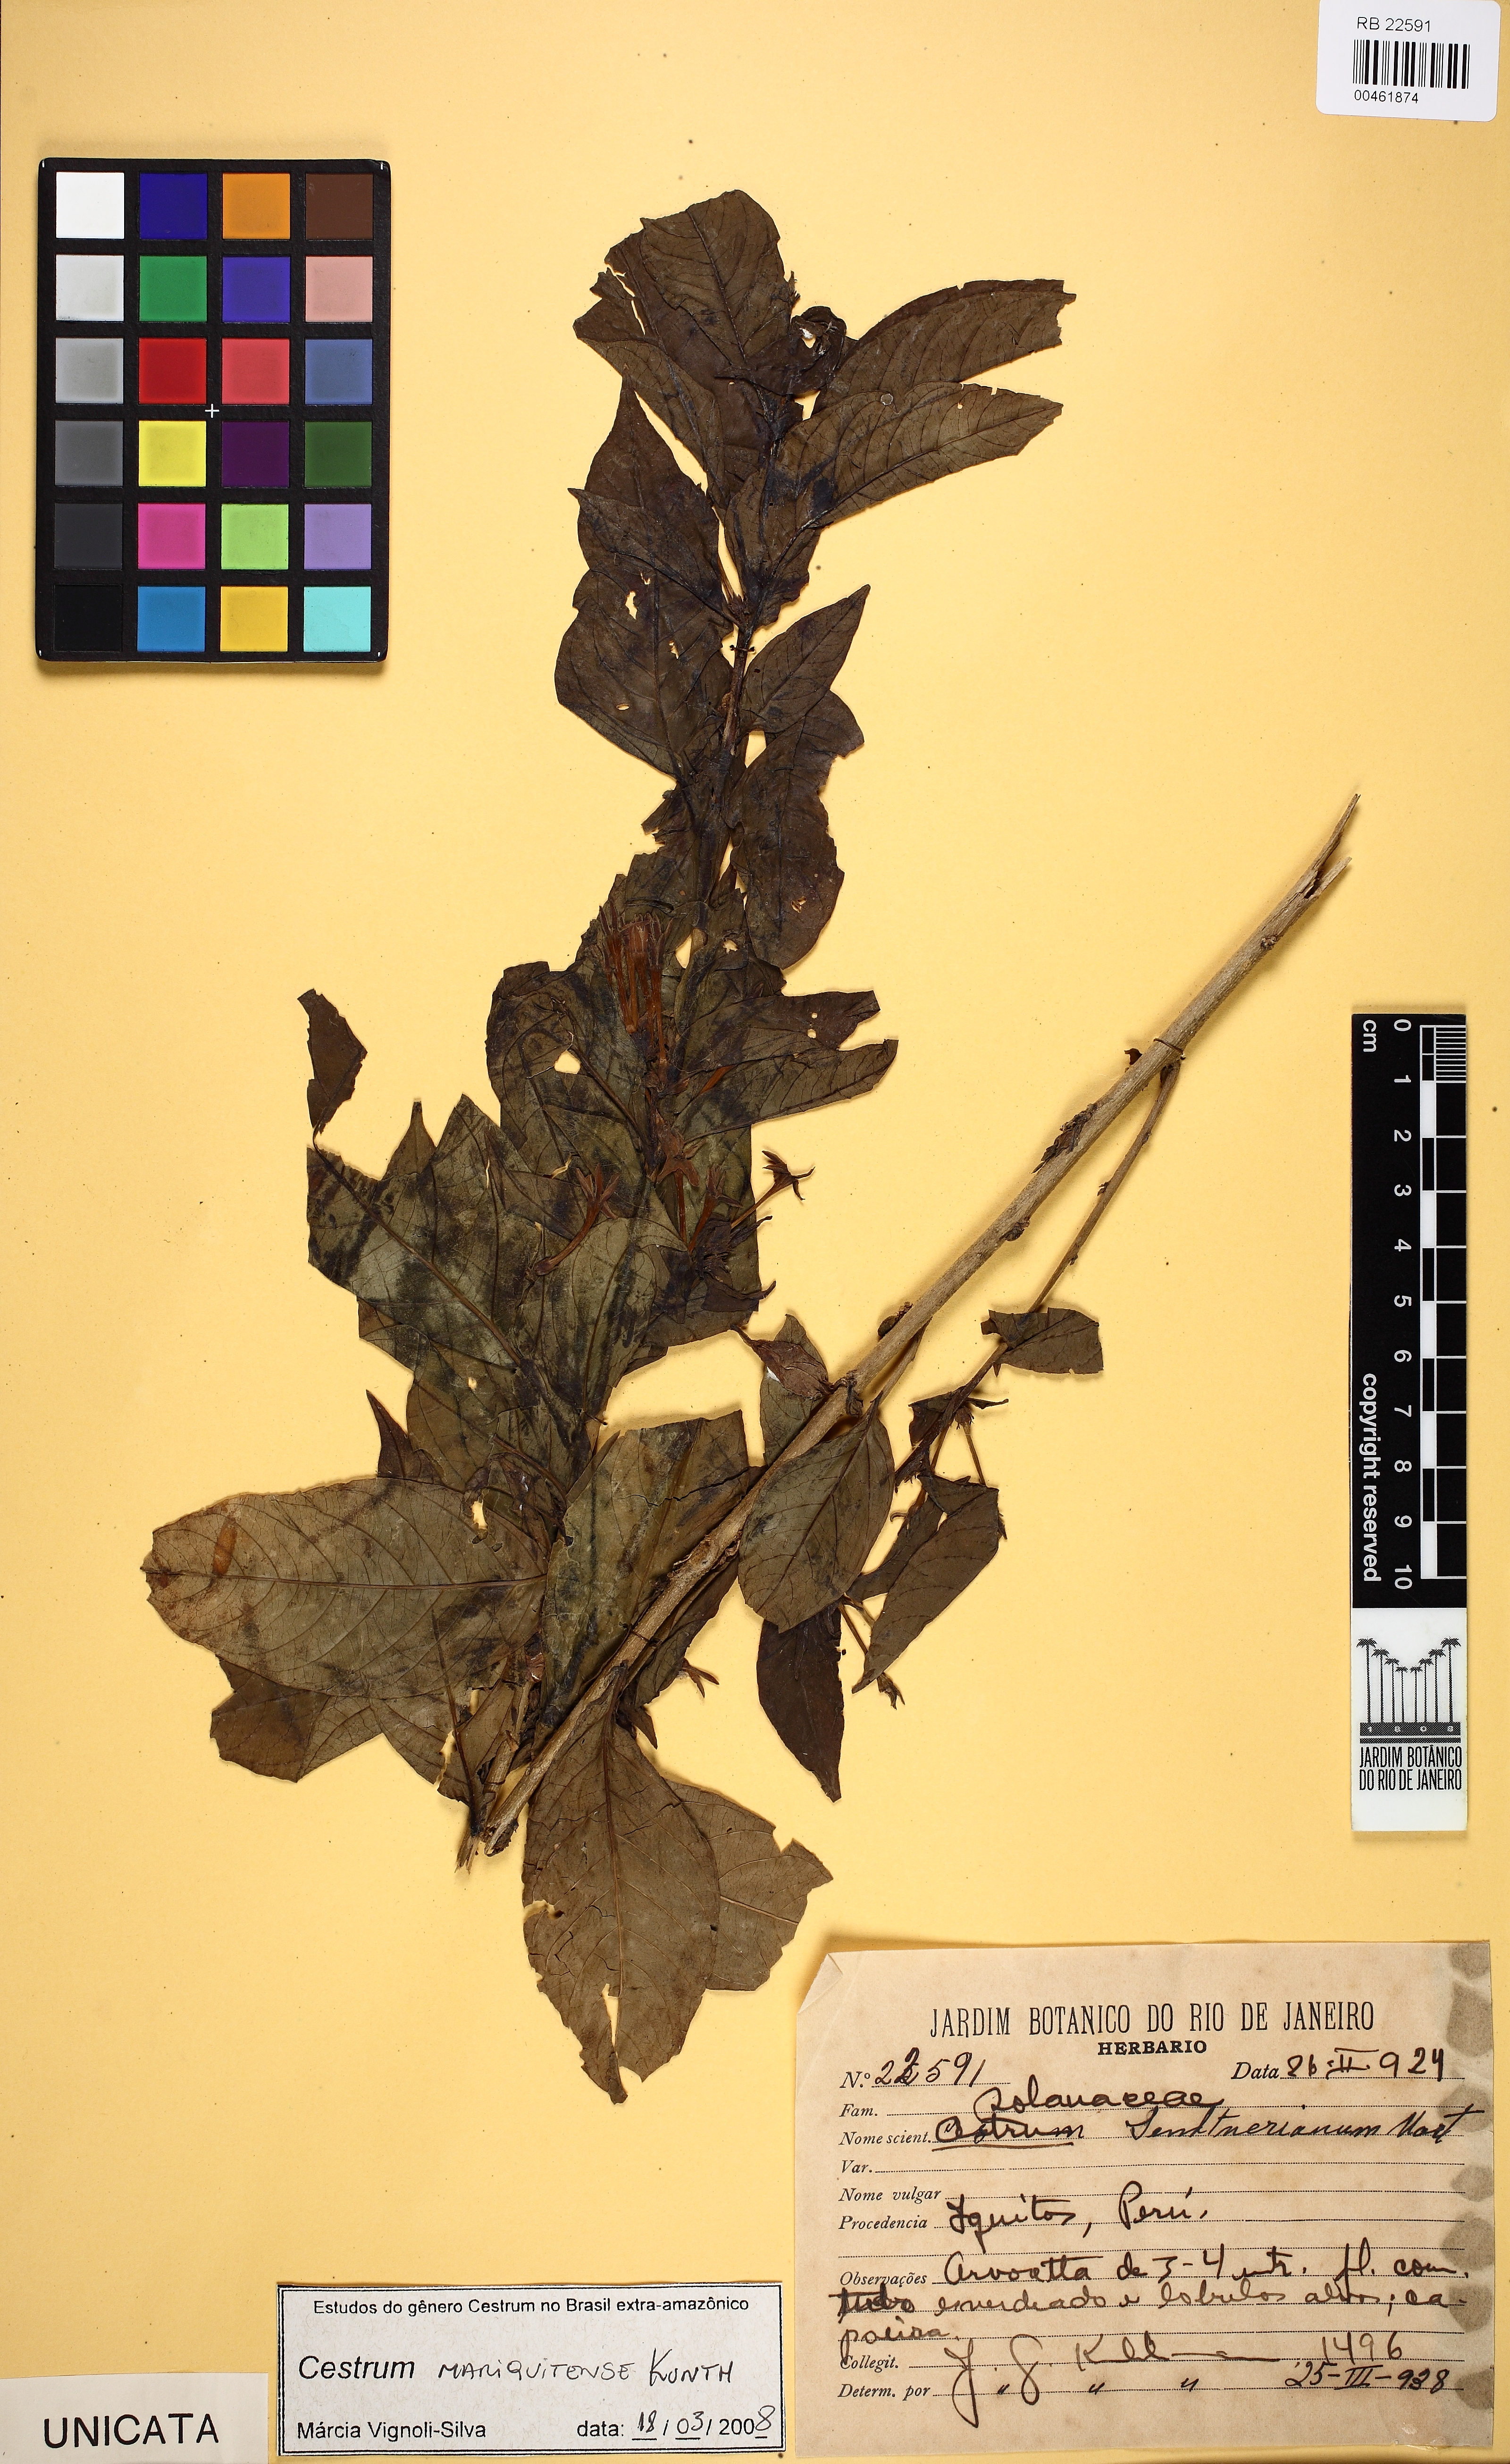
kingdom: Plantae
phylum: Tracheophyta
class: Magnoliopsida
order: Solanales
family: Solanaceae
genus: Cestrum
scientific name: Cestrum mariquitense
